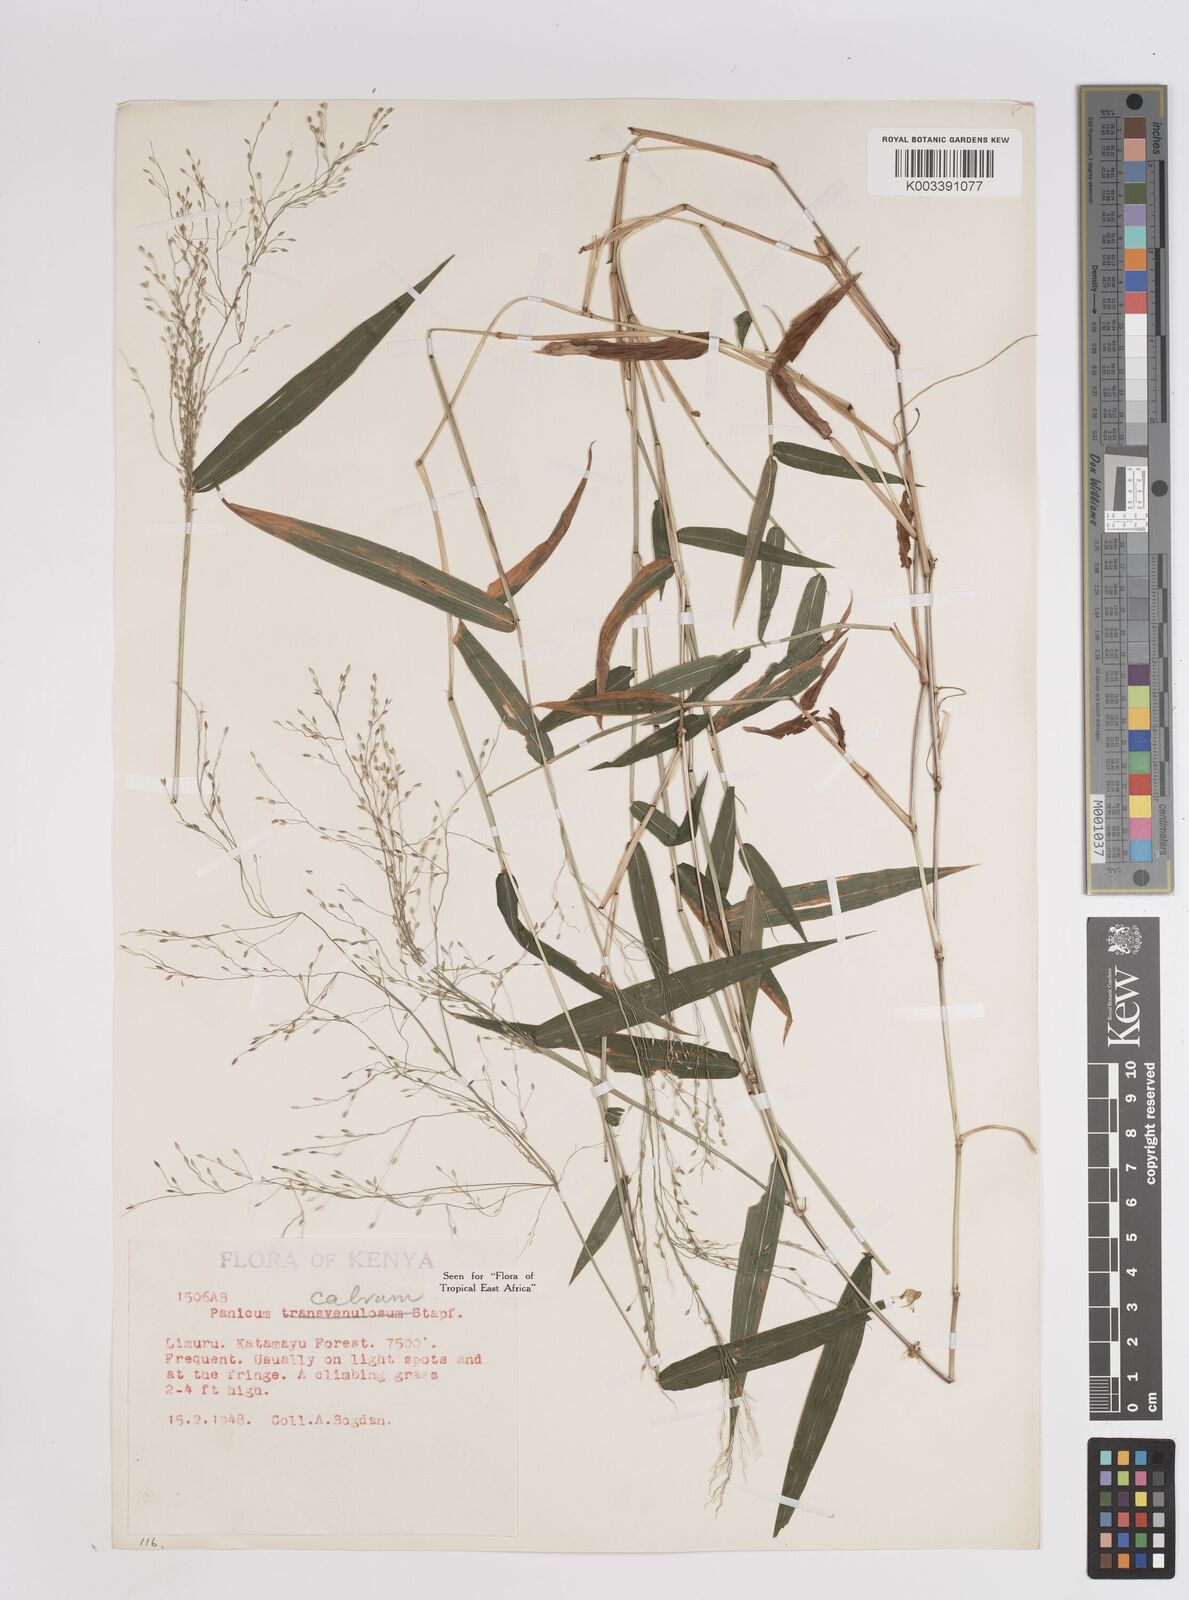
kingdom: Plantae
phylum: Tracheophyta
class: Liliopsida
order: Poales
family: Poaceae
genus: Panicum
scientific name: Panicum calvum
